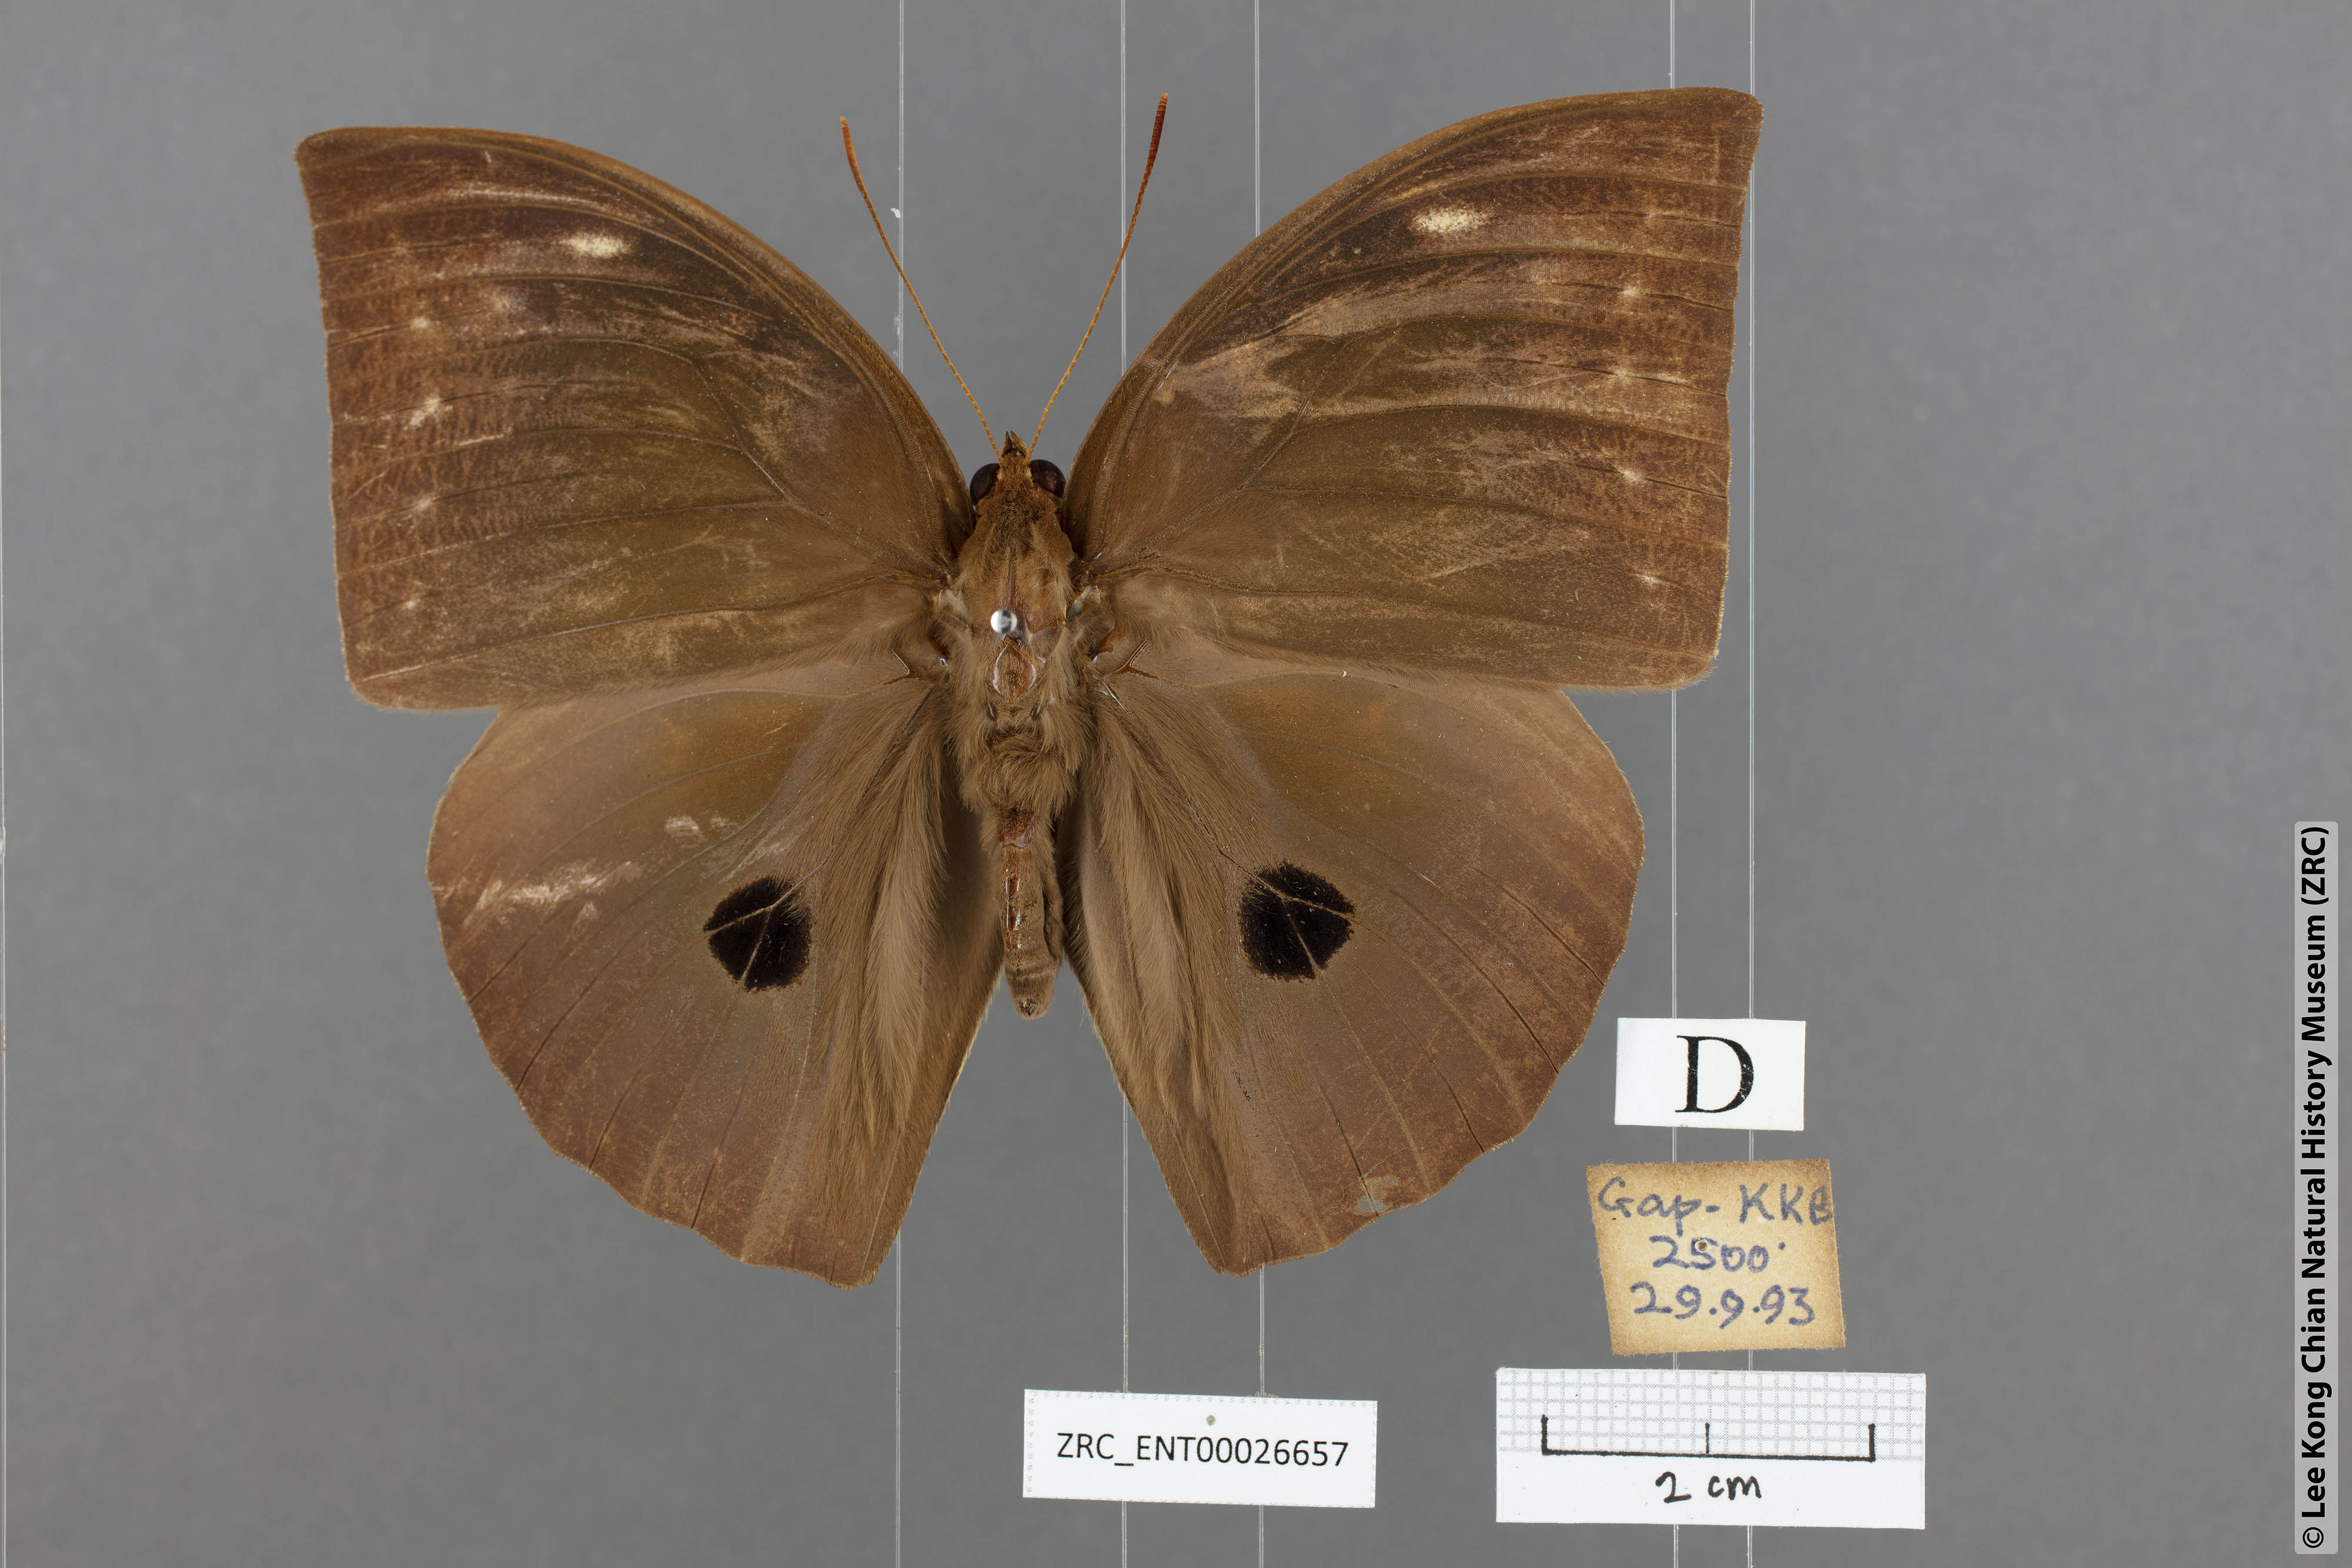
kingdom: Animalia
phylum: Arthropoda
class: Insecta
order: Lepidoptera
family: Nymphalidae
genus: Discophora
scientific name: Discophora timora
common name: Great duffer
